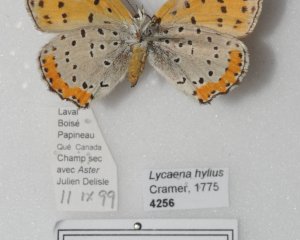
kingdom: Animalia
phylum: Arthropoda
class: Insecta
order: Lepidoptera
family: Sesiidae
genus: Sesia
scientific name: Sesia Lycaena hyllus
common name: Bronze Copper
